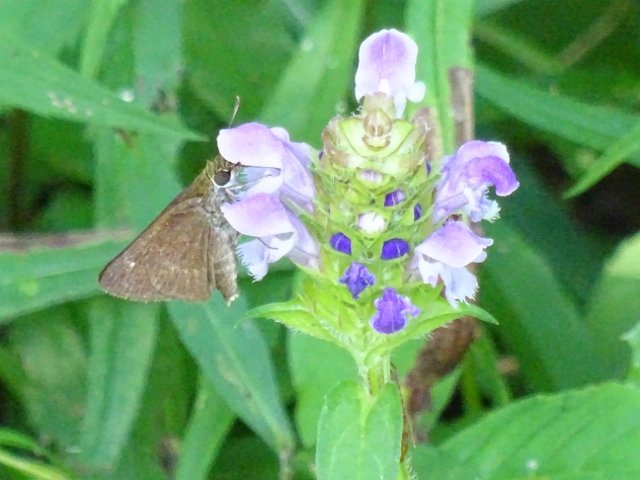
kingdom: Animalia
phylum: Arthropoda
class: Insecta
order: Lepidoptera
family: Hesperiidae
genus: Polites
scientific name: Polites egeremet
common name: Northern Broken-Dash
